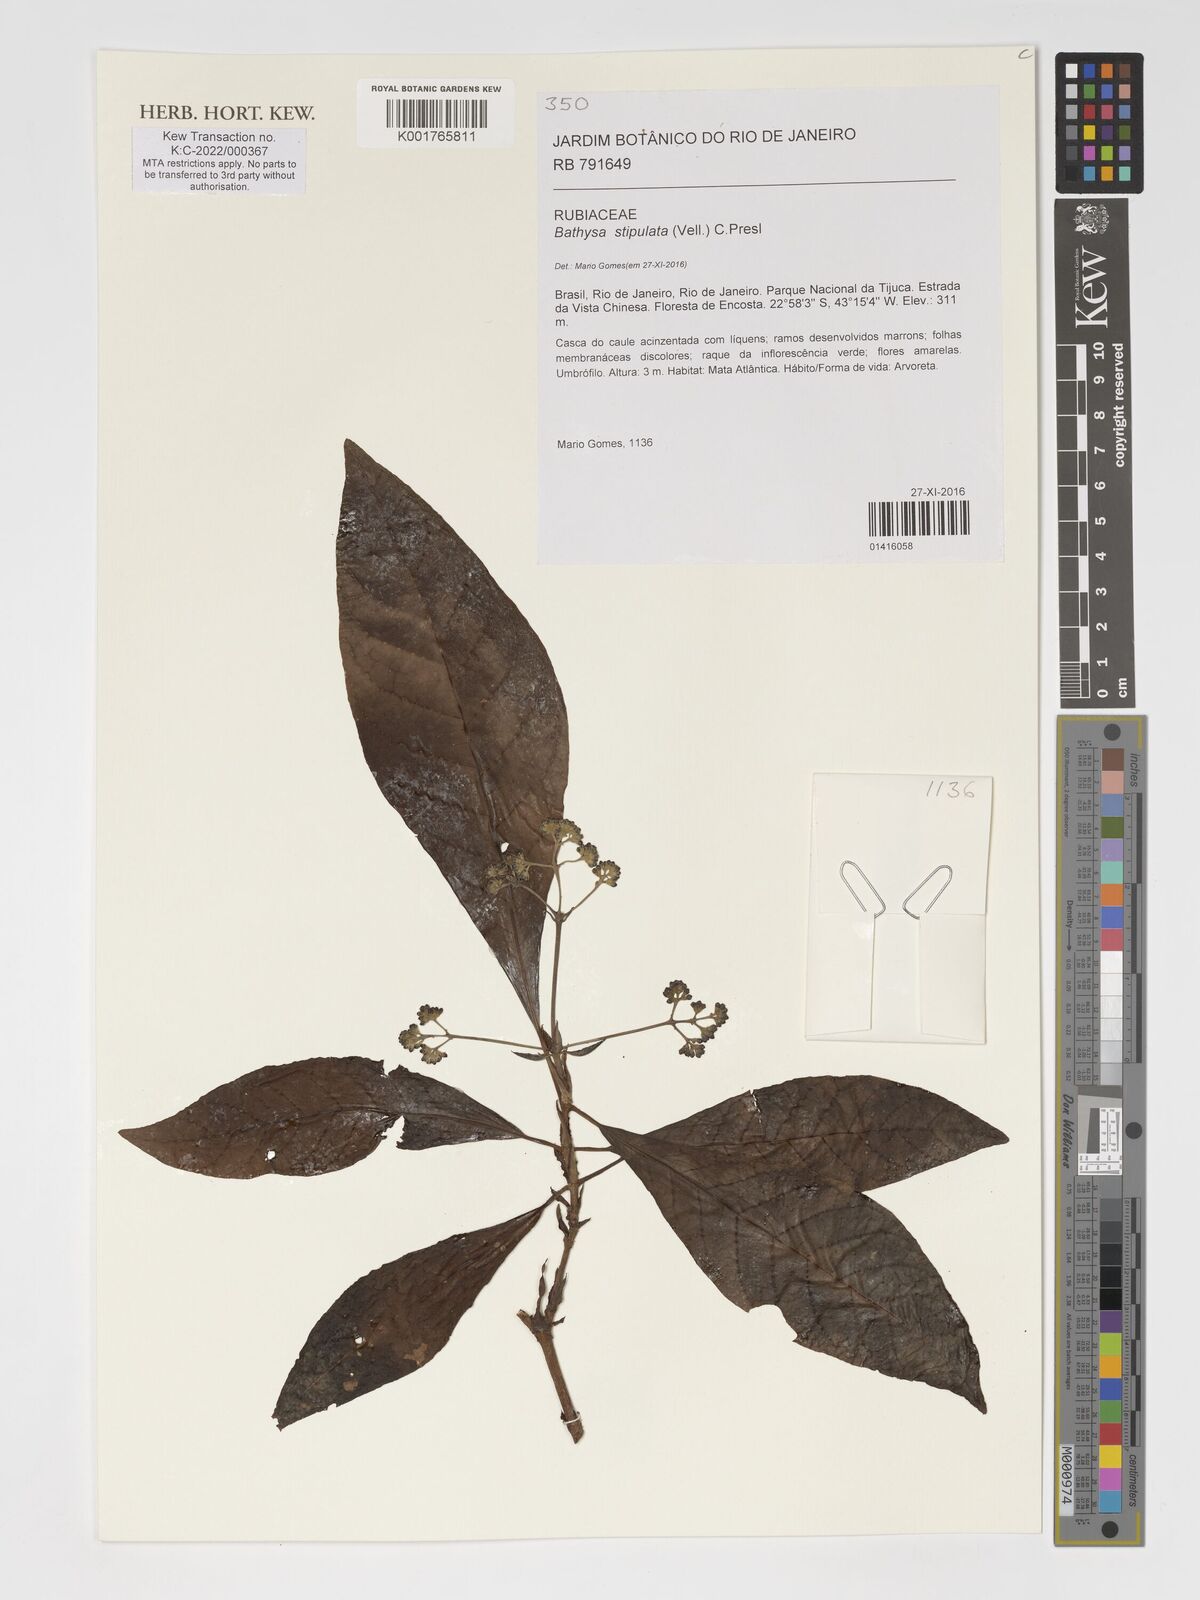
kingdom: Plantae
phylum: Tracheophyta
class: Magnoliopsida
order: Gentianales
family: Rubiaceae
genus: Bathysa
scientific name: Bathysa stipulata
